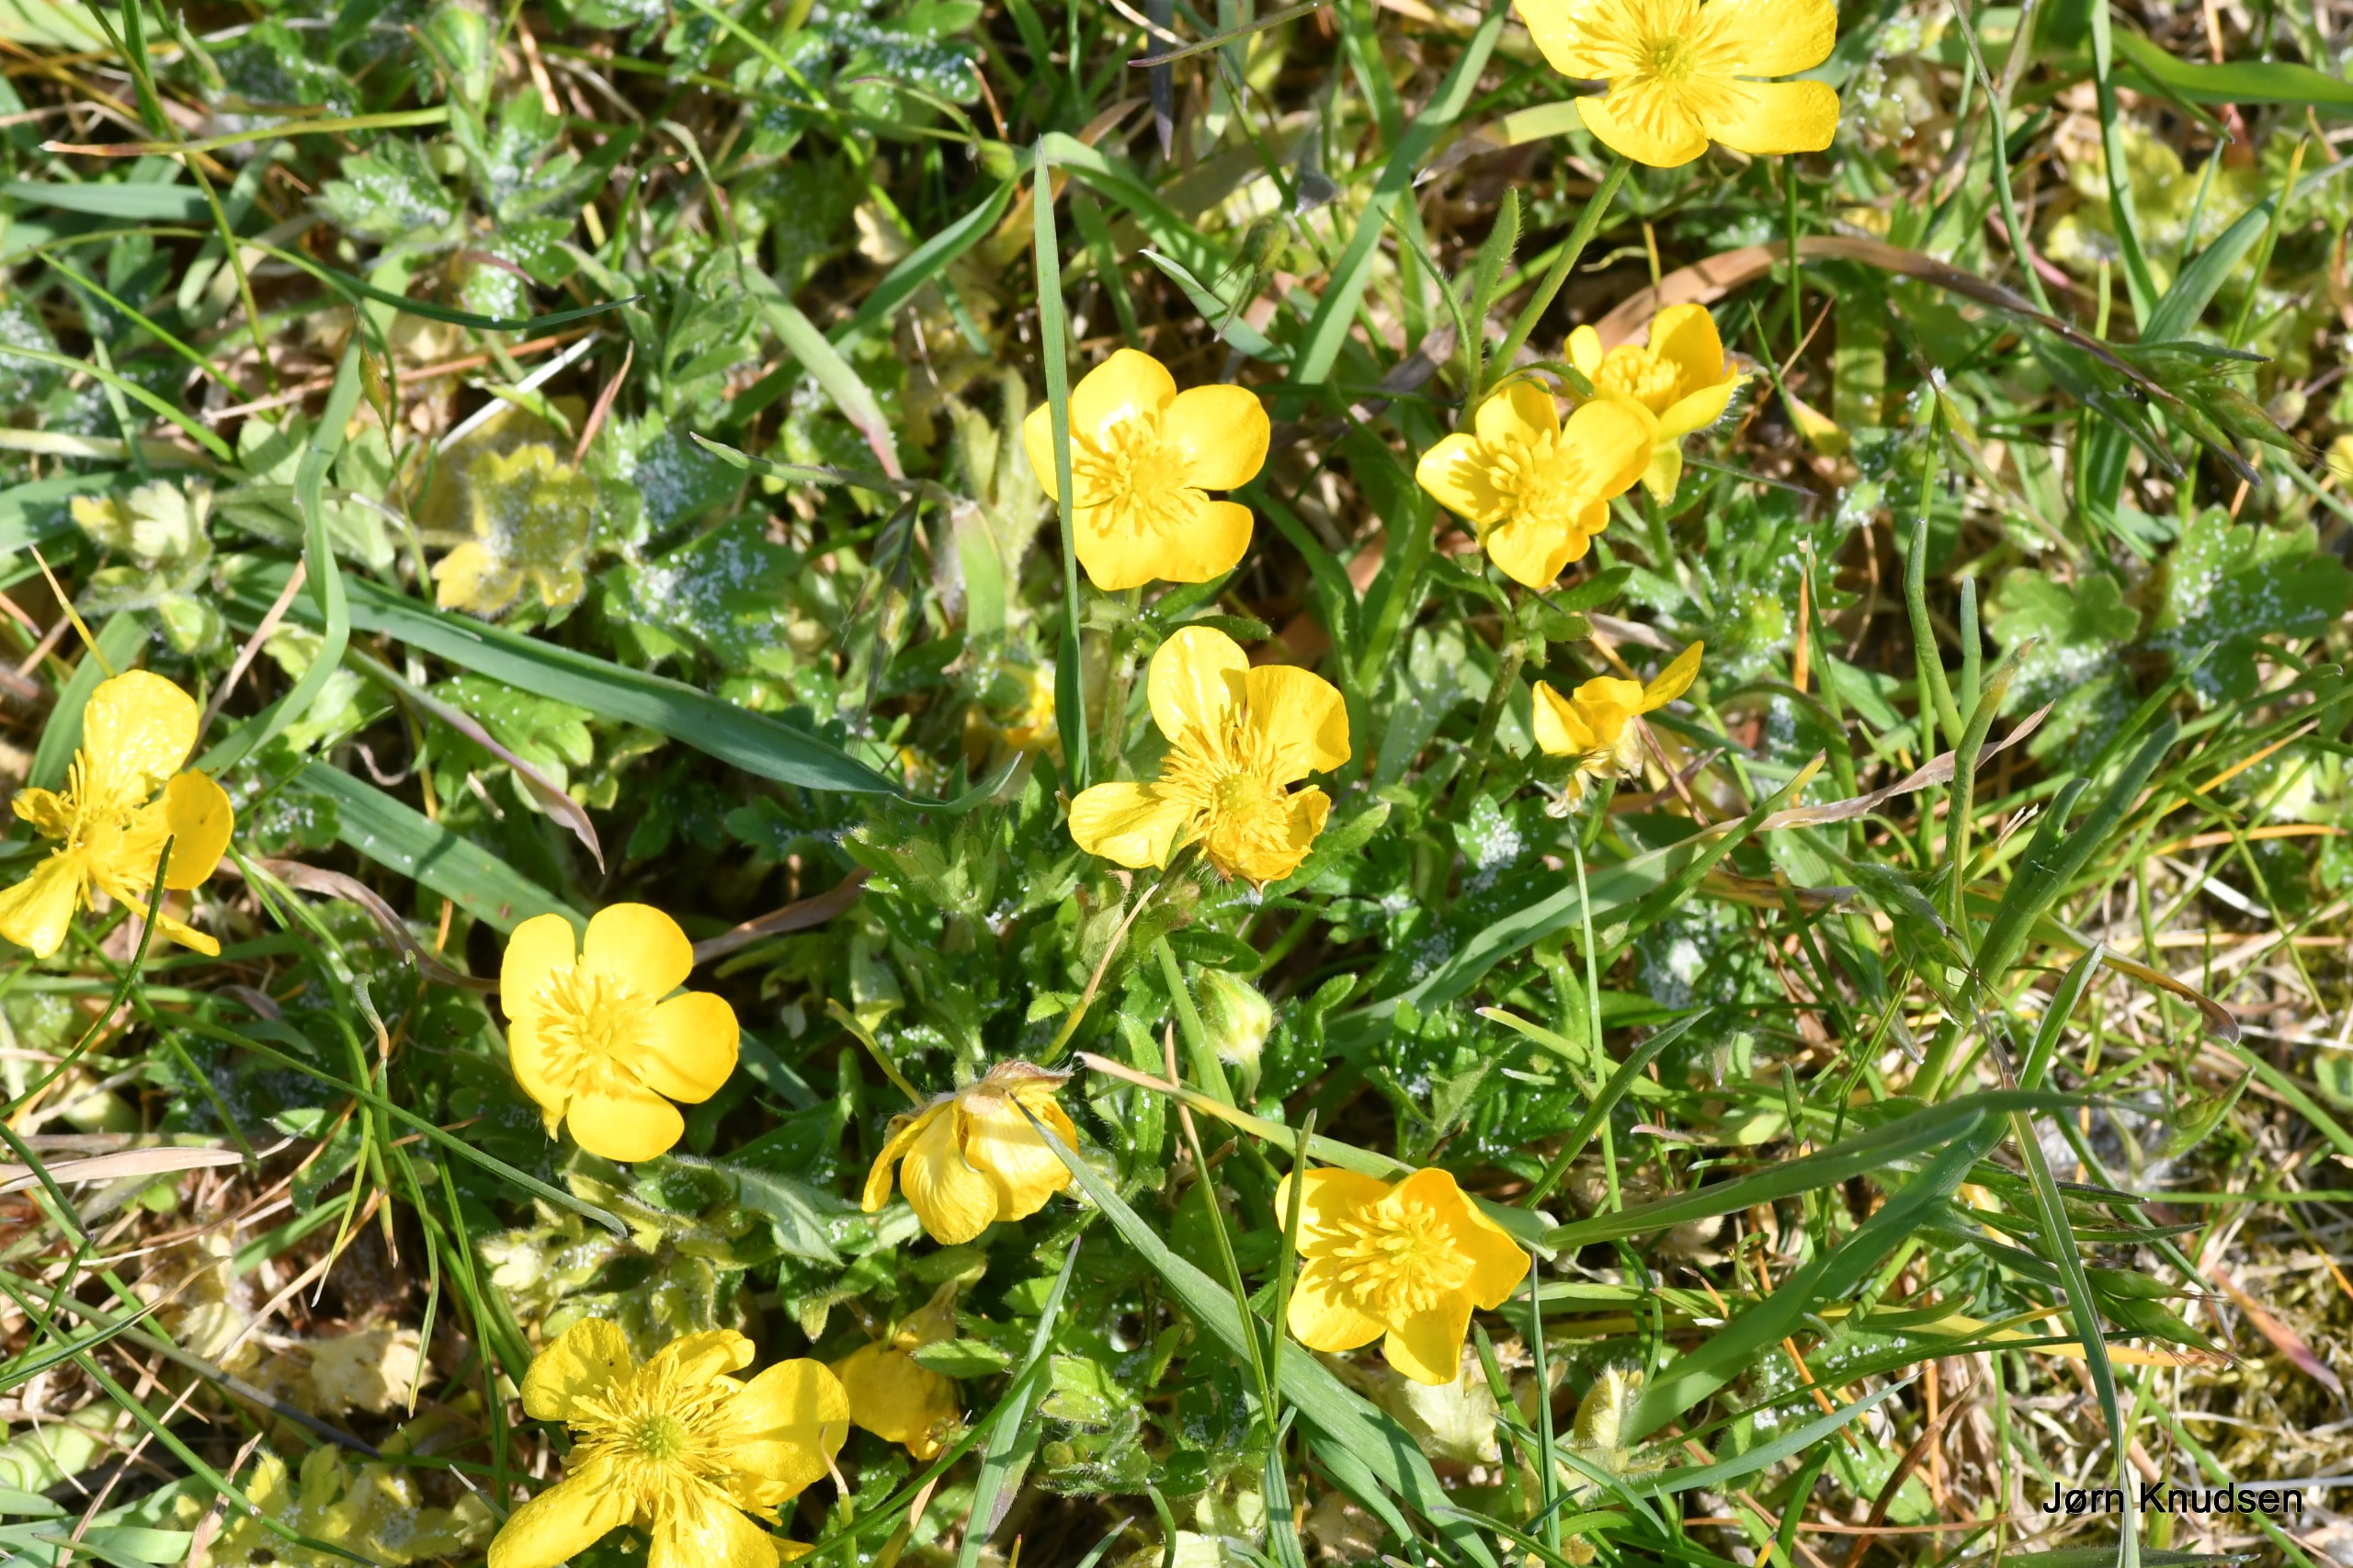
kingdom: Plantae
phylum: Tracheophyta
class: Magnoliopsida
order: Ranunculales
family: Ranunculaceae
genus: Ranunculus
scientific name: Ranunculus bulbosus
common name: Knold-ranunkel
